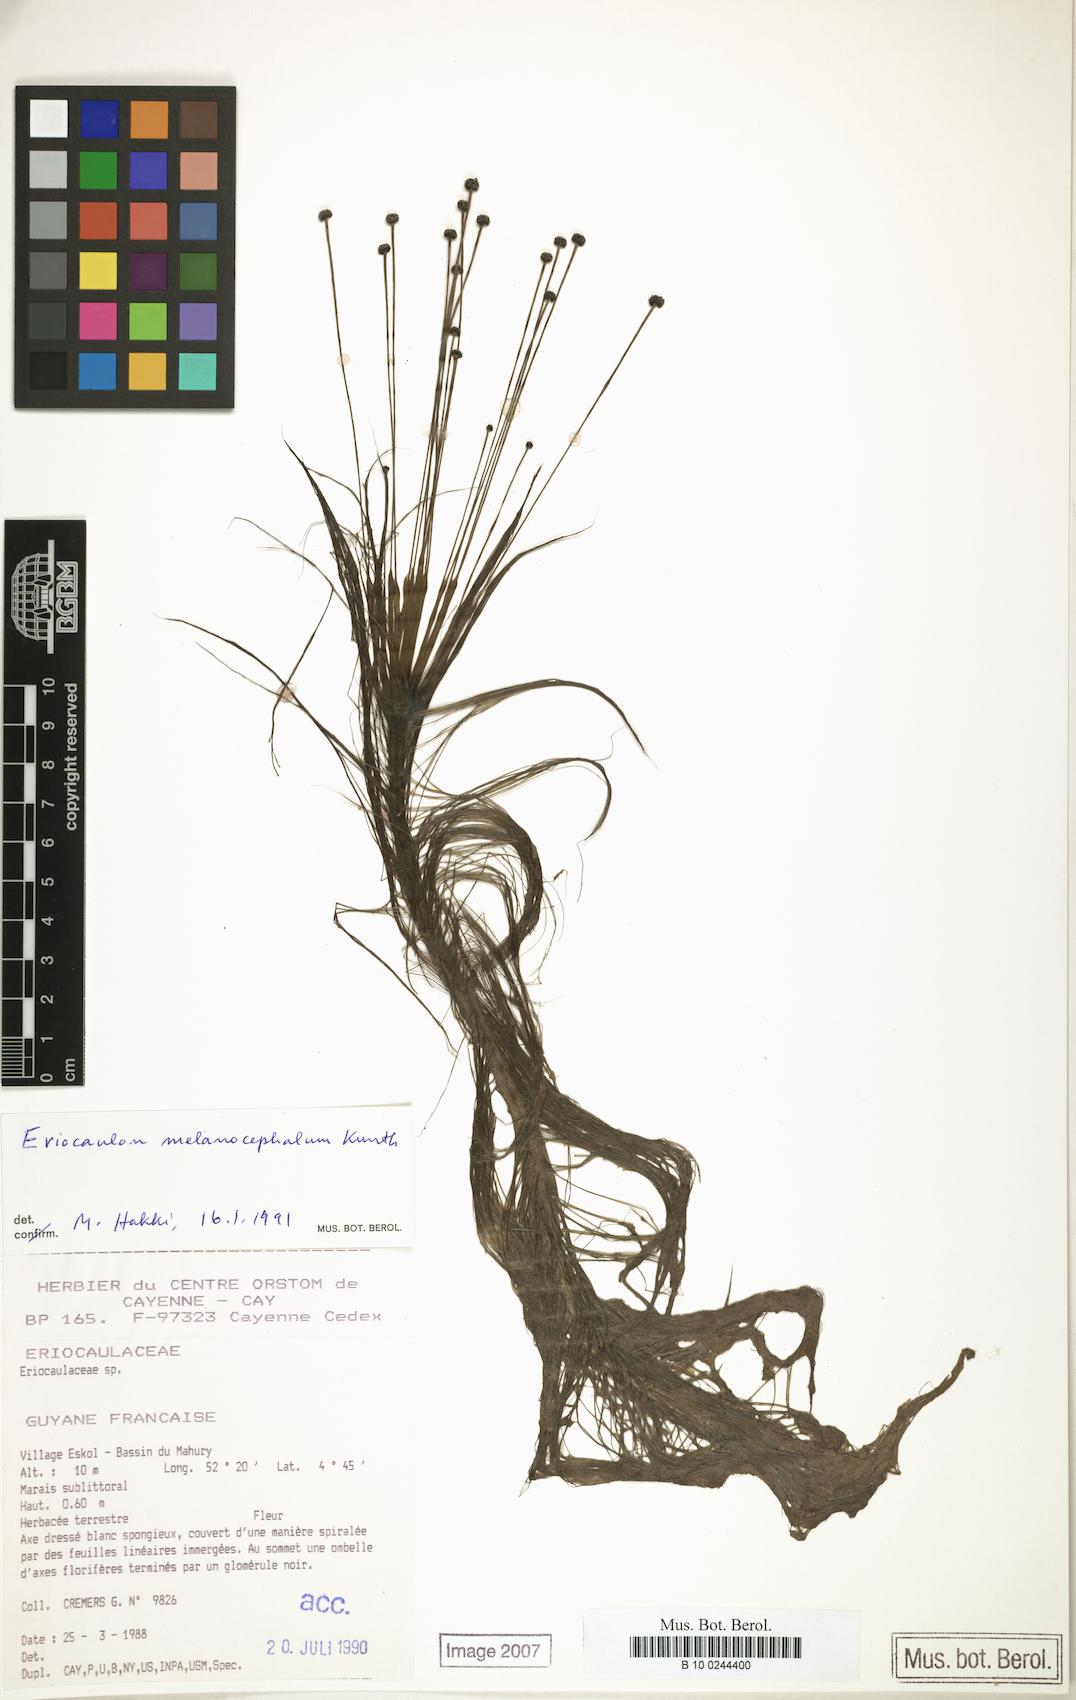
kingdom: Plantae
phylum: Tracheophyta
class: Liliopsida
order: Poales
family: Eriocaulaceae
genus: Eriocaulon
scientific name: Eriocaulon melanocephalum
